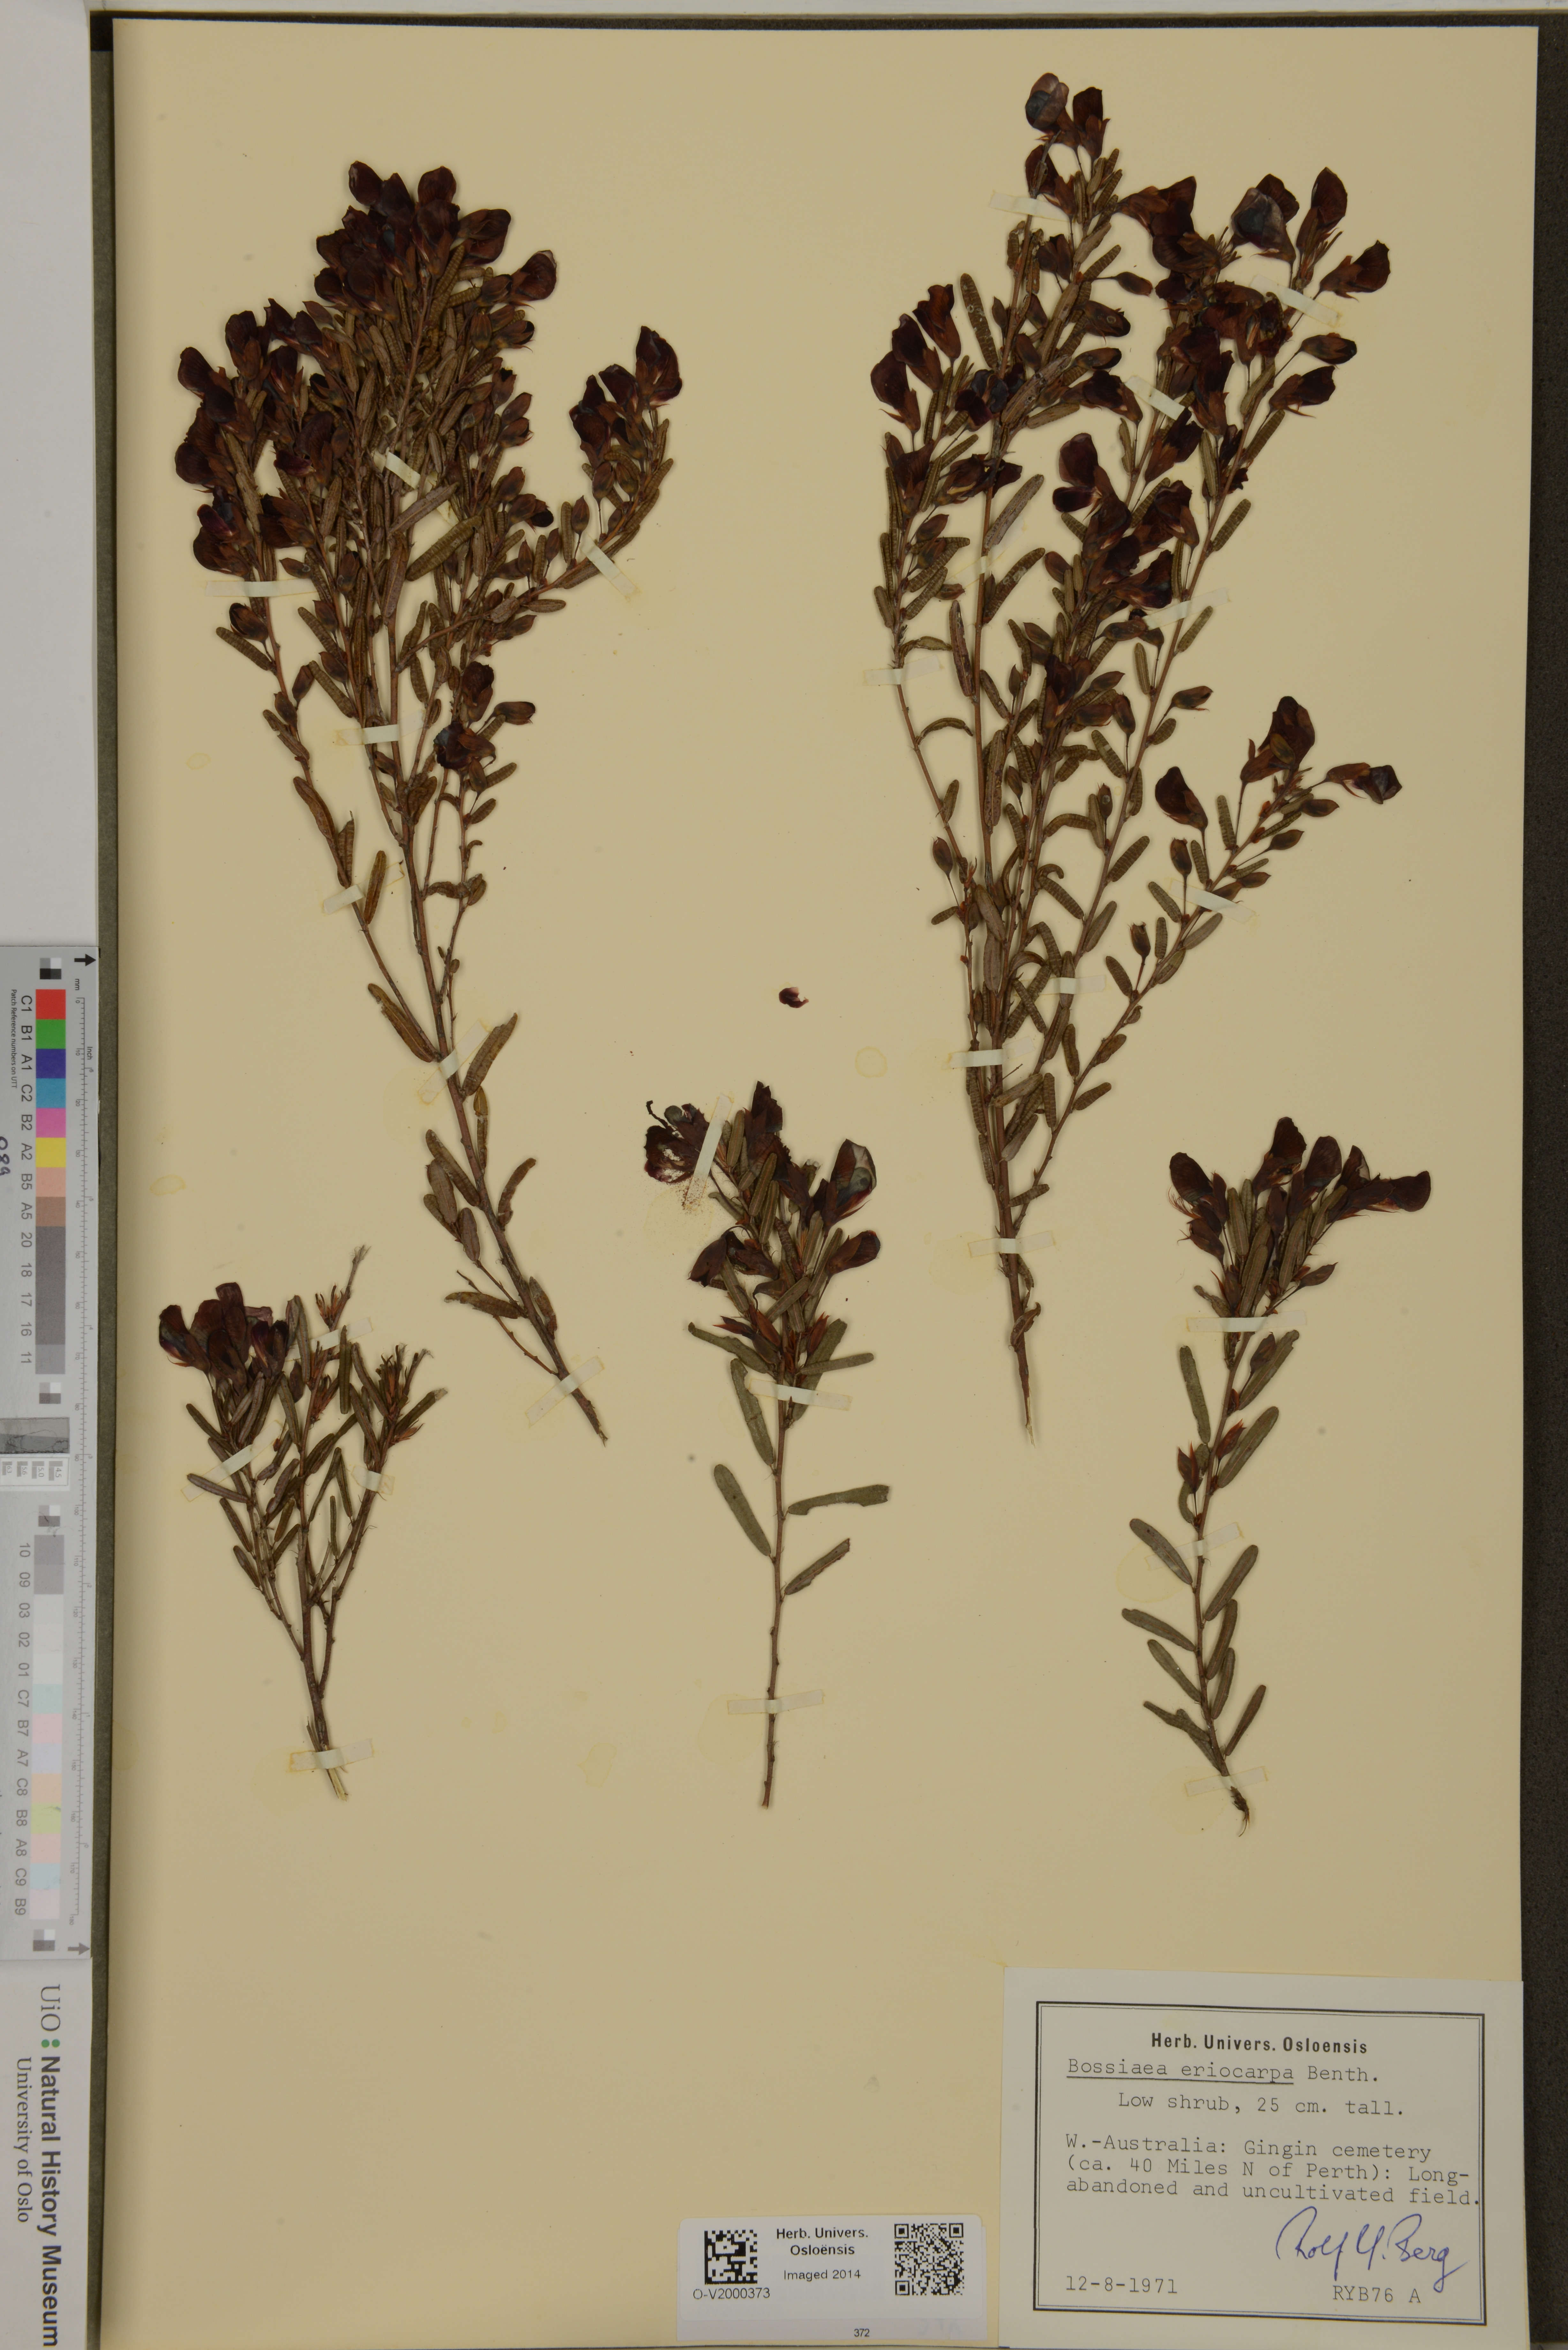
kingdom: Plantae
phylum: Tracheophyta
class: Magnoliopsida
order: Fabales
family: Fabaceae
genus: Bossiaea
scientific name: Bossiaea eriocarpa
